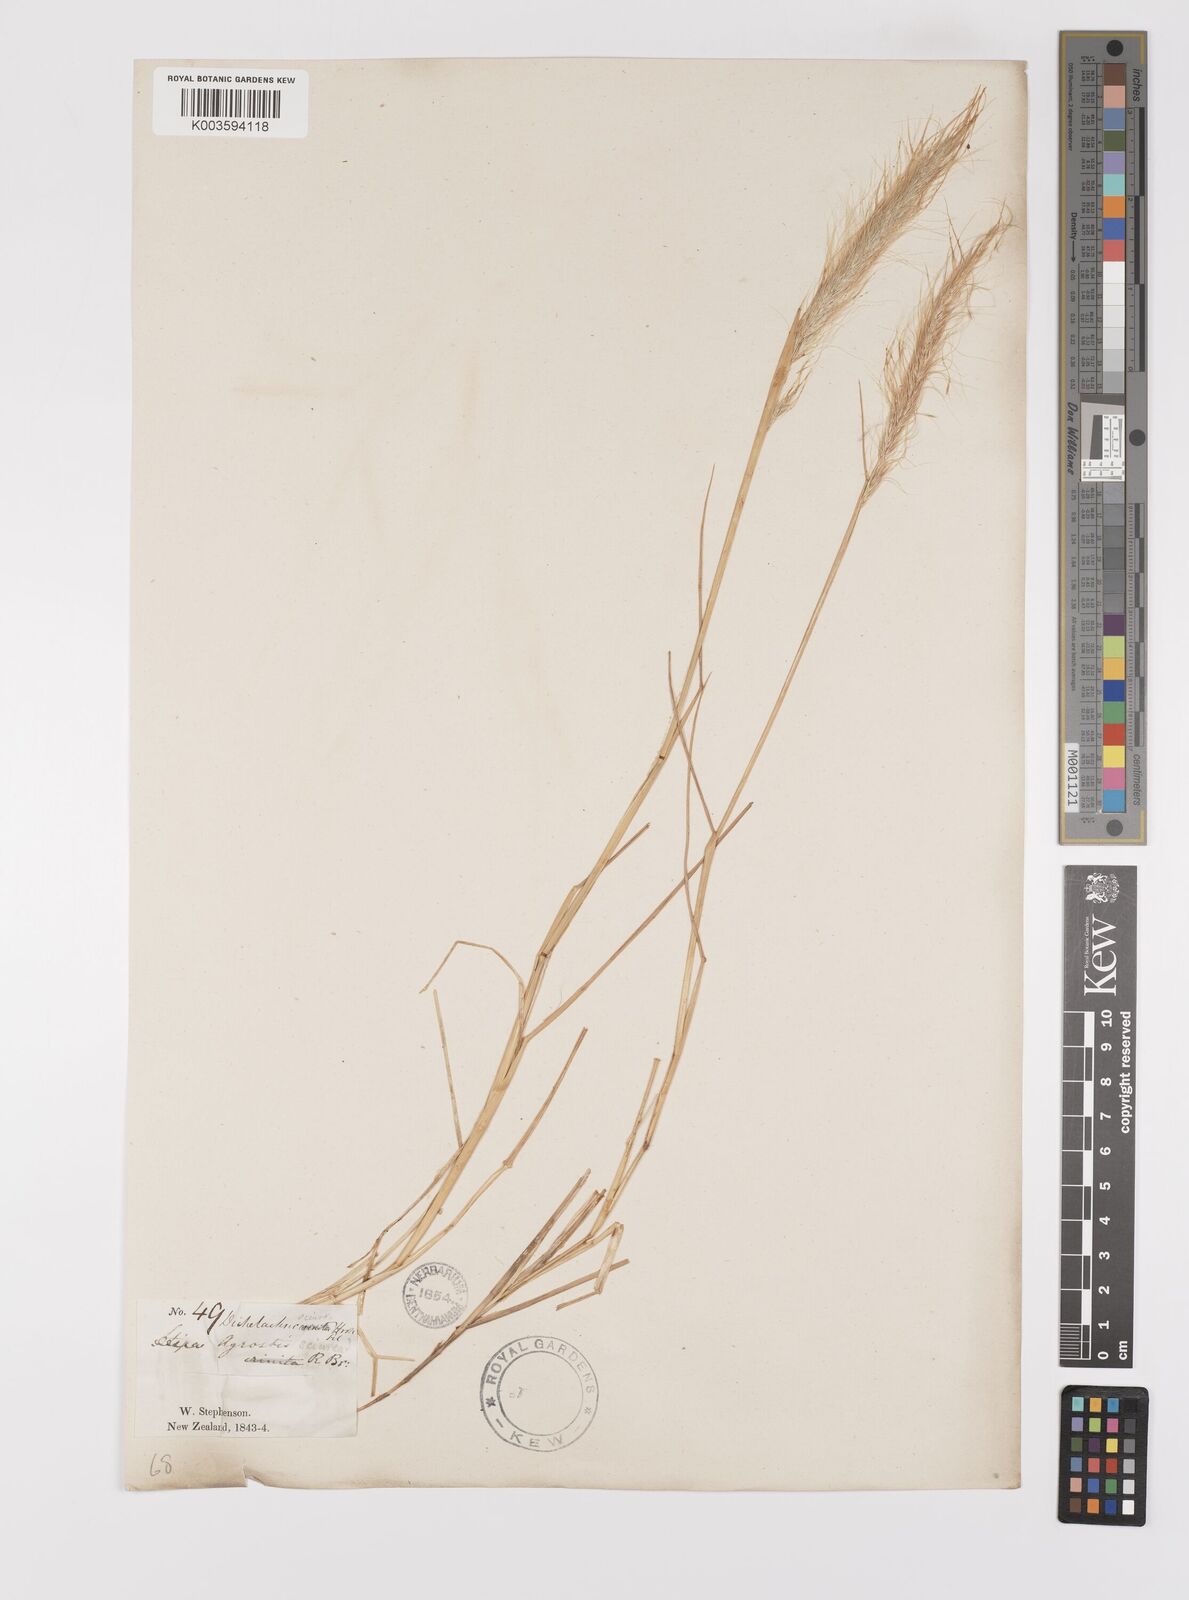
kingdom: Plantae
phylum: Tracheophyta
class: Liliopsida
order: Poales
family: Poaceae
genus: Dichelachne
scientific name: Dichelachne crinita
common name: Clovenfoot plumegrass
